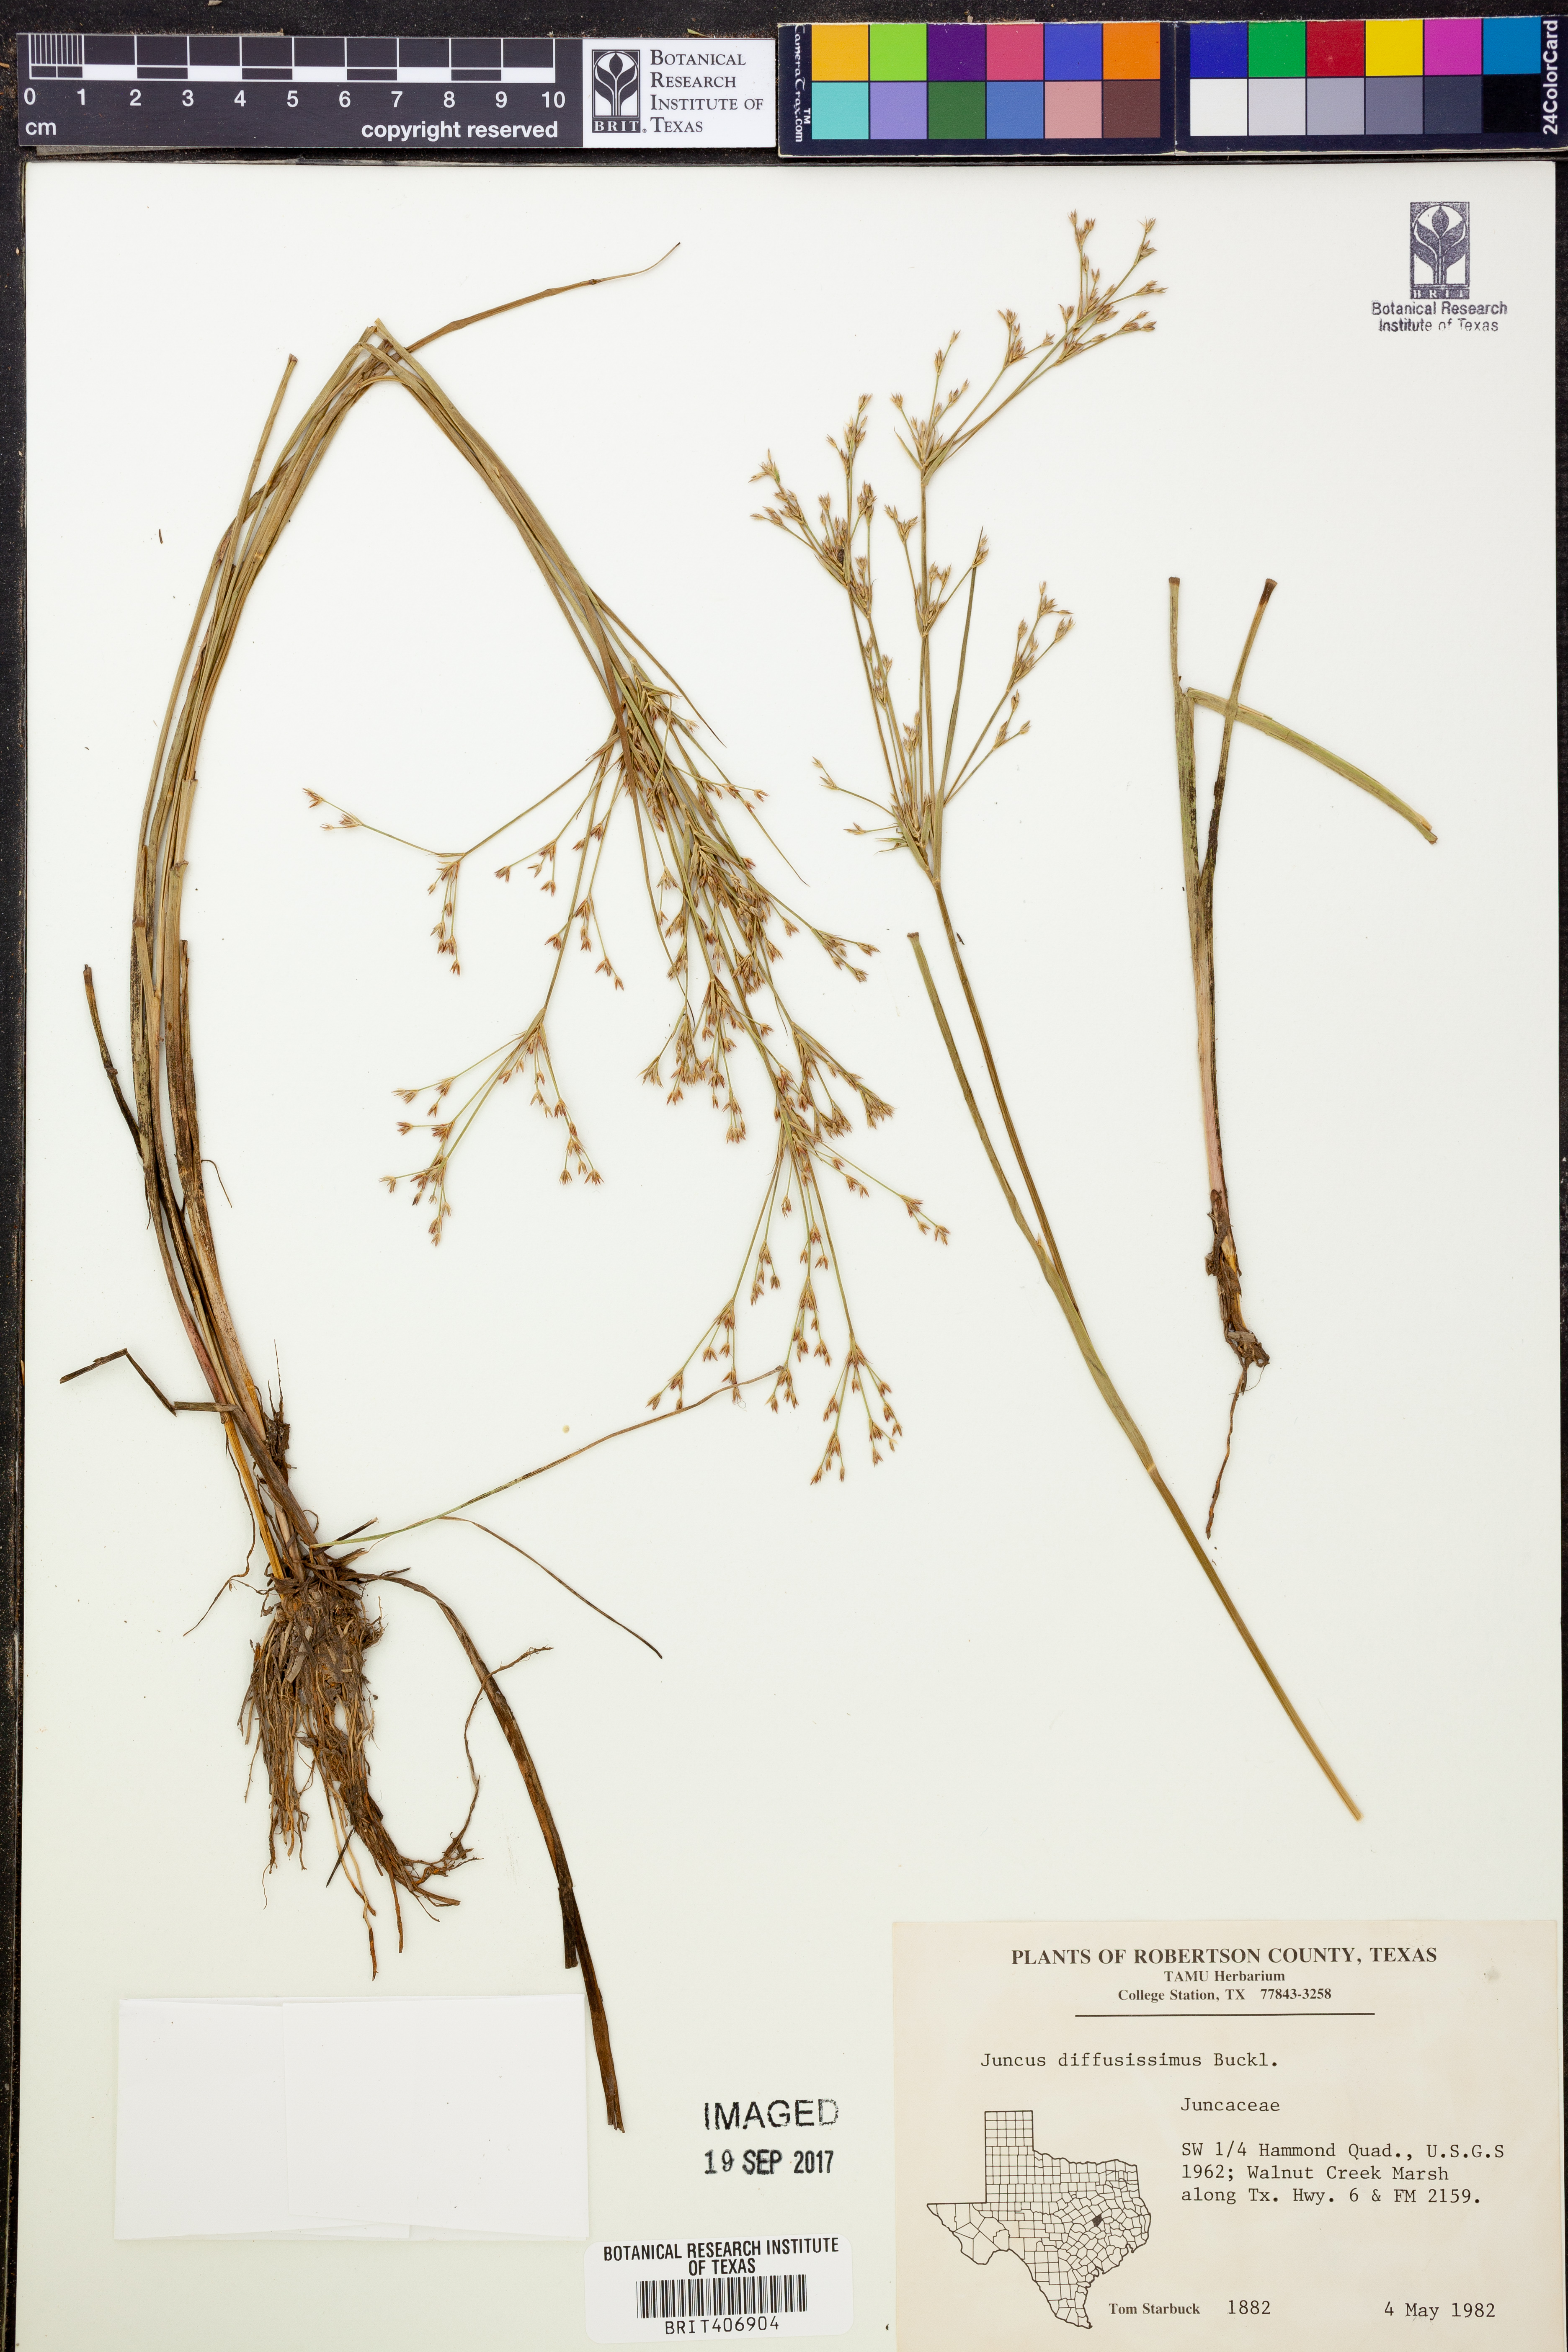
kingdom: Plantae
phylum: Tracheophyta
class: Liliopsida
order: Poales
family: Juncaceae
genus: Juncus
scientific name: Juncus diffusissimus
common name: Slimpod rush
